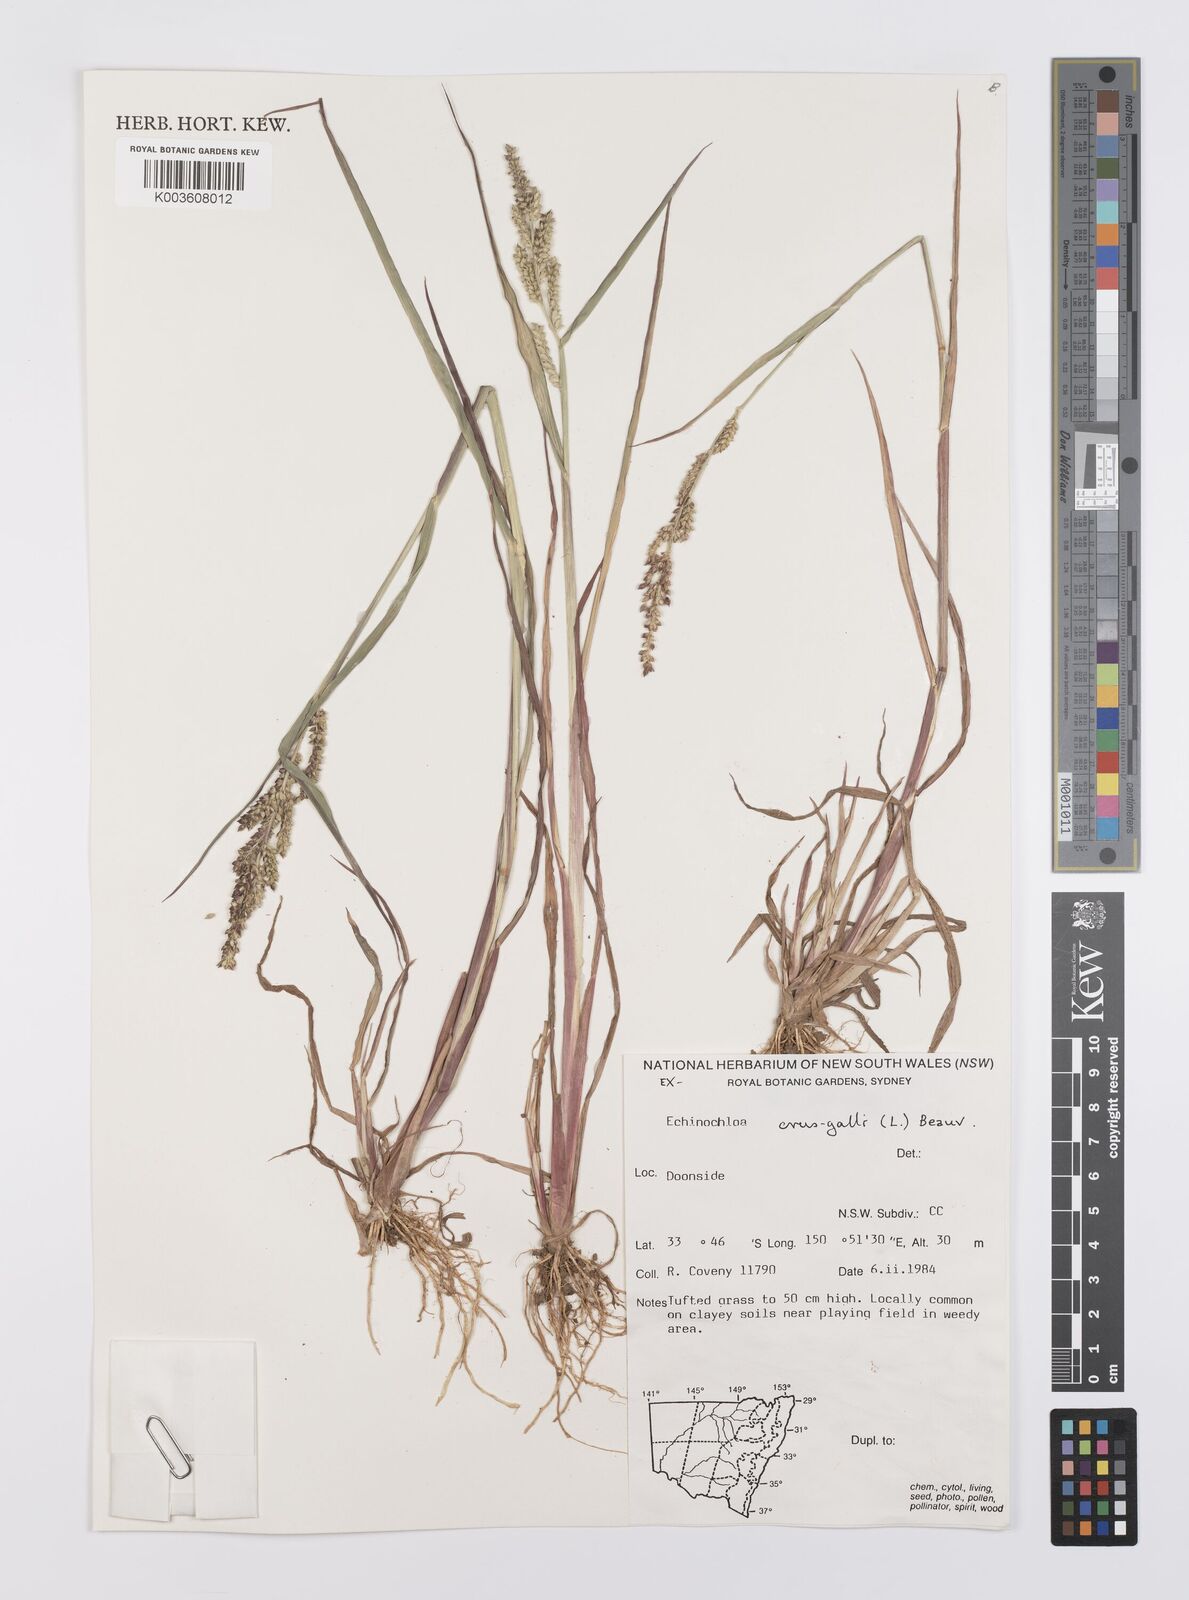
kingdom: Plantae
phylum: Tracheophyta
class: Liliopsida
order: Poales
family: Poaceae
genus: Echinochloa
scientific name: Echinochloa crus-galli
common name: Cockspur
